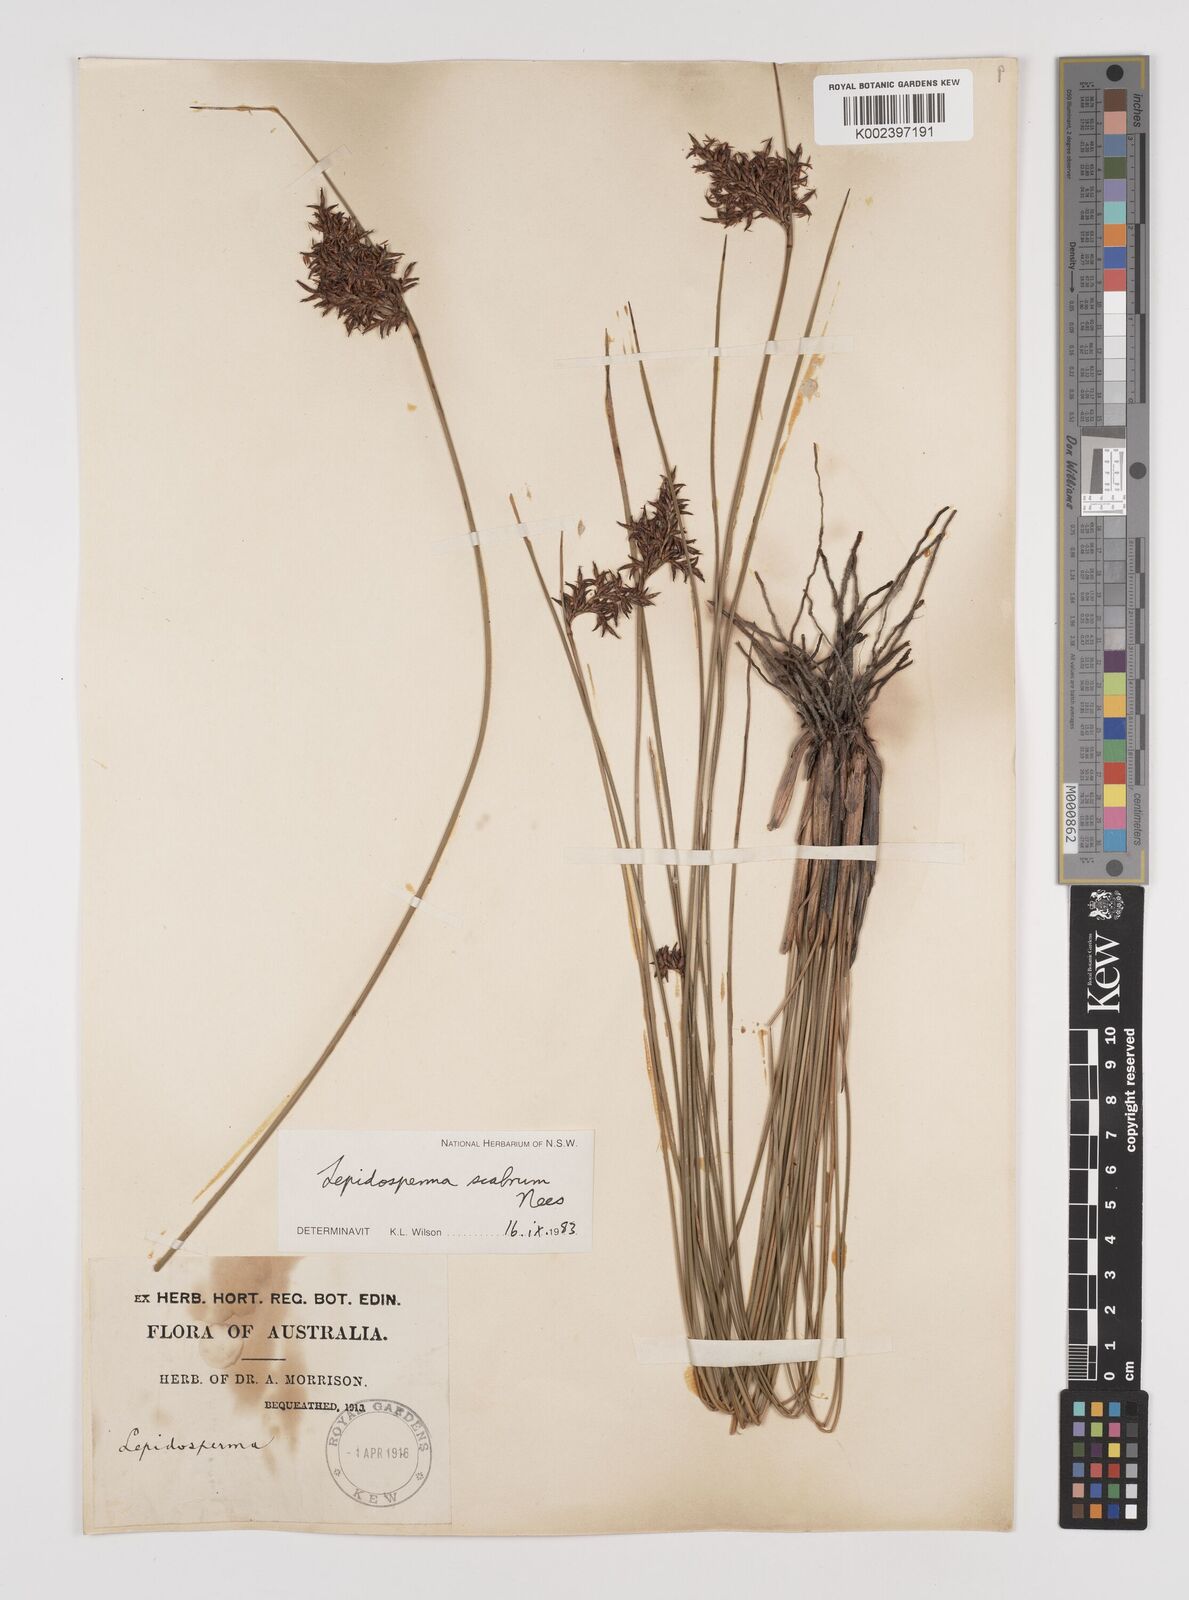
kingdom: Plantae
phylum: Tracheophyta
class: Liliopsida
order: Poales
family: Cyperaceae
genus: Lepidosperma
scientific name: Lepidosperma scabrum
